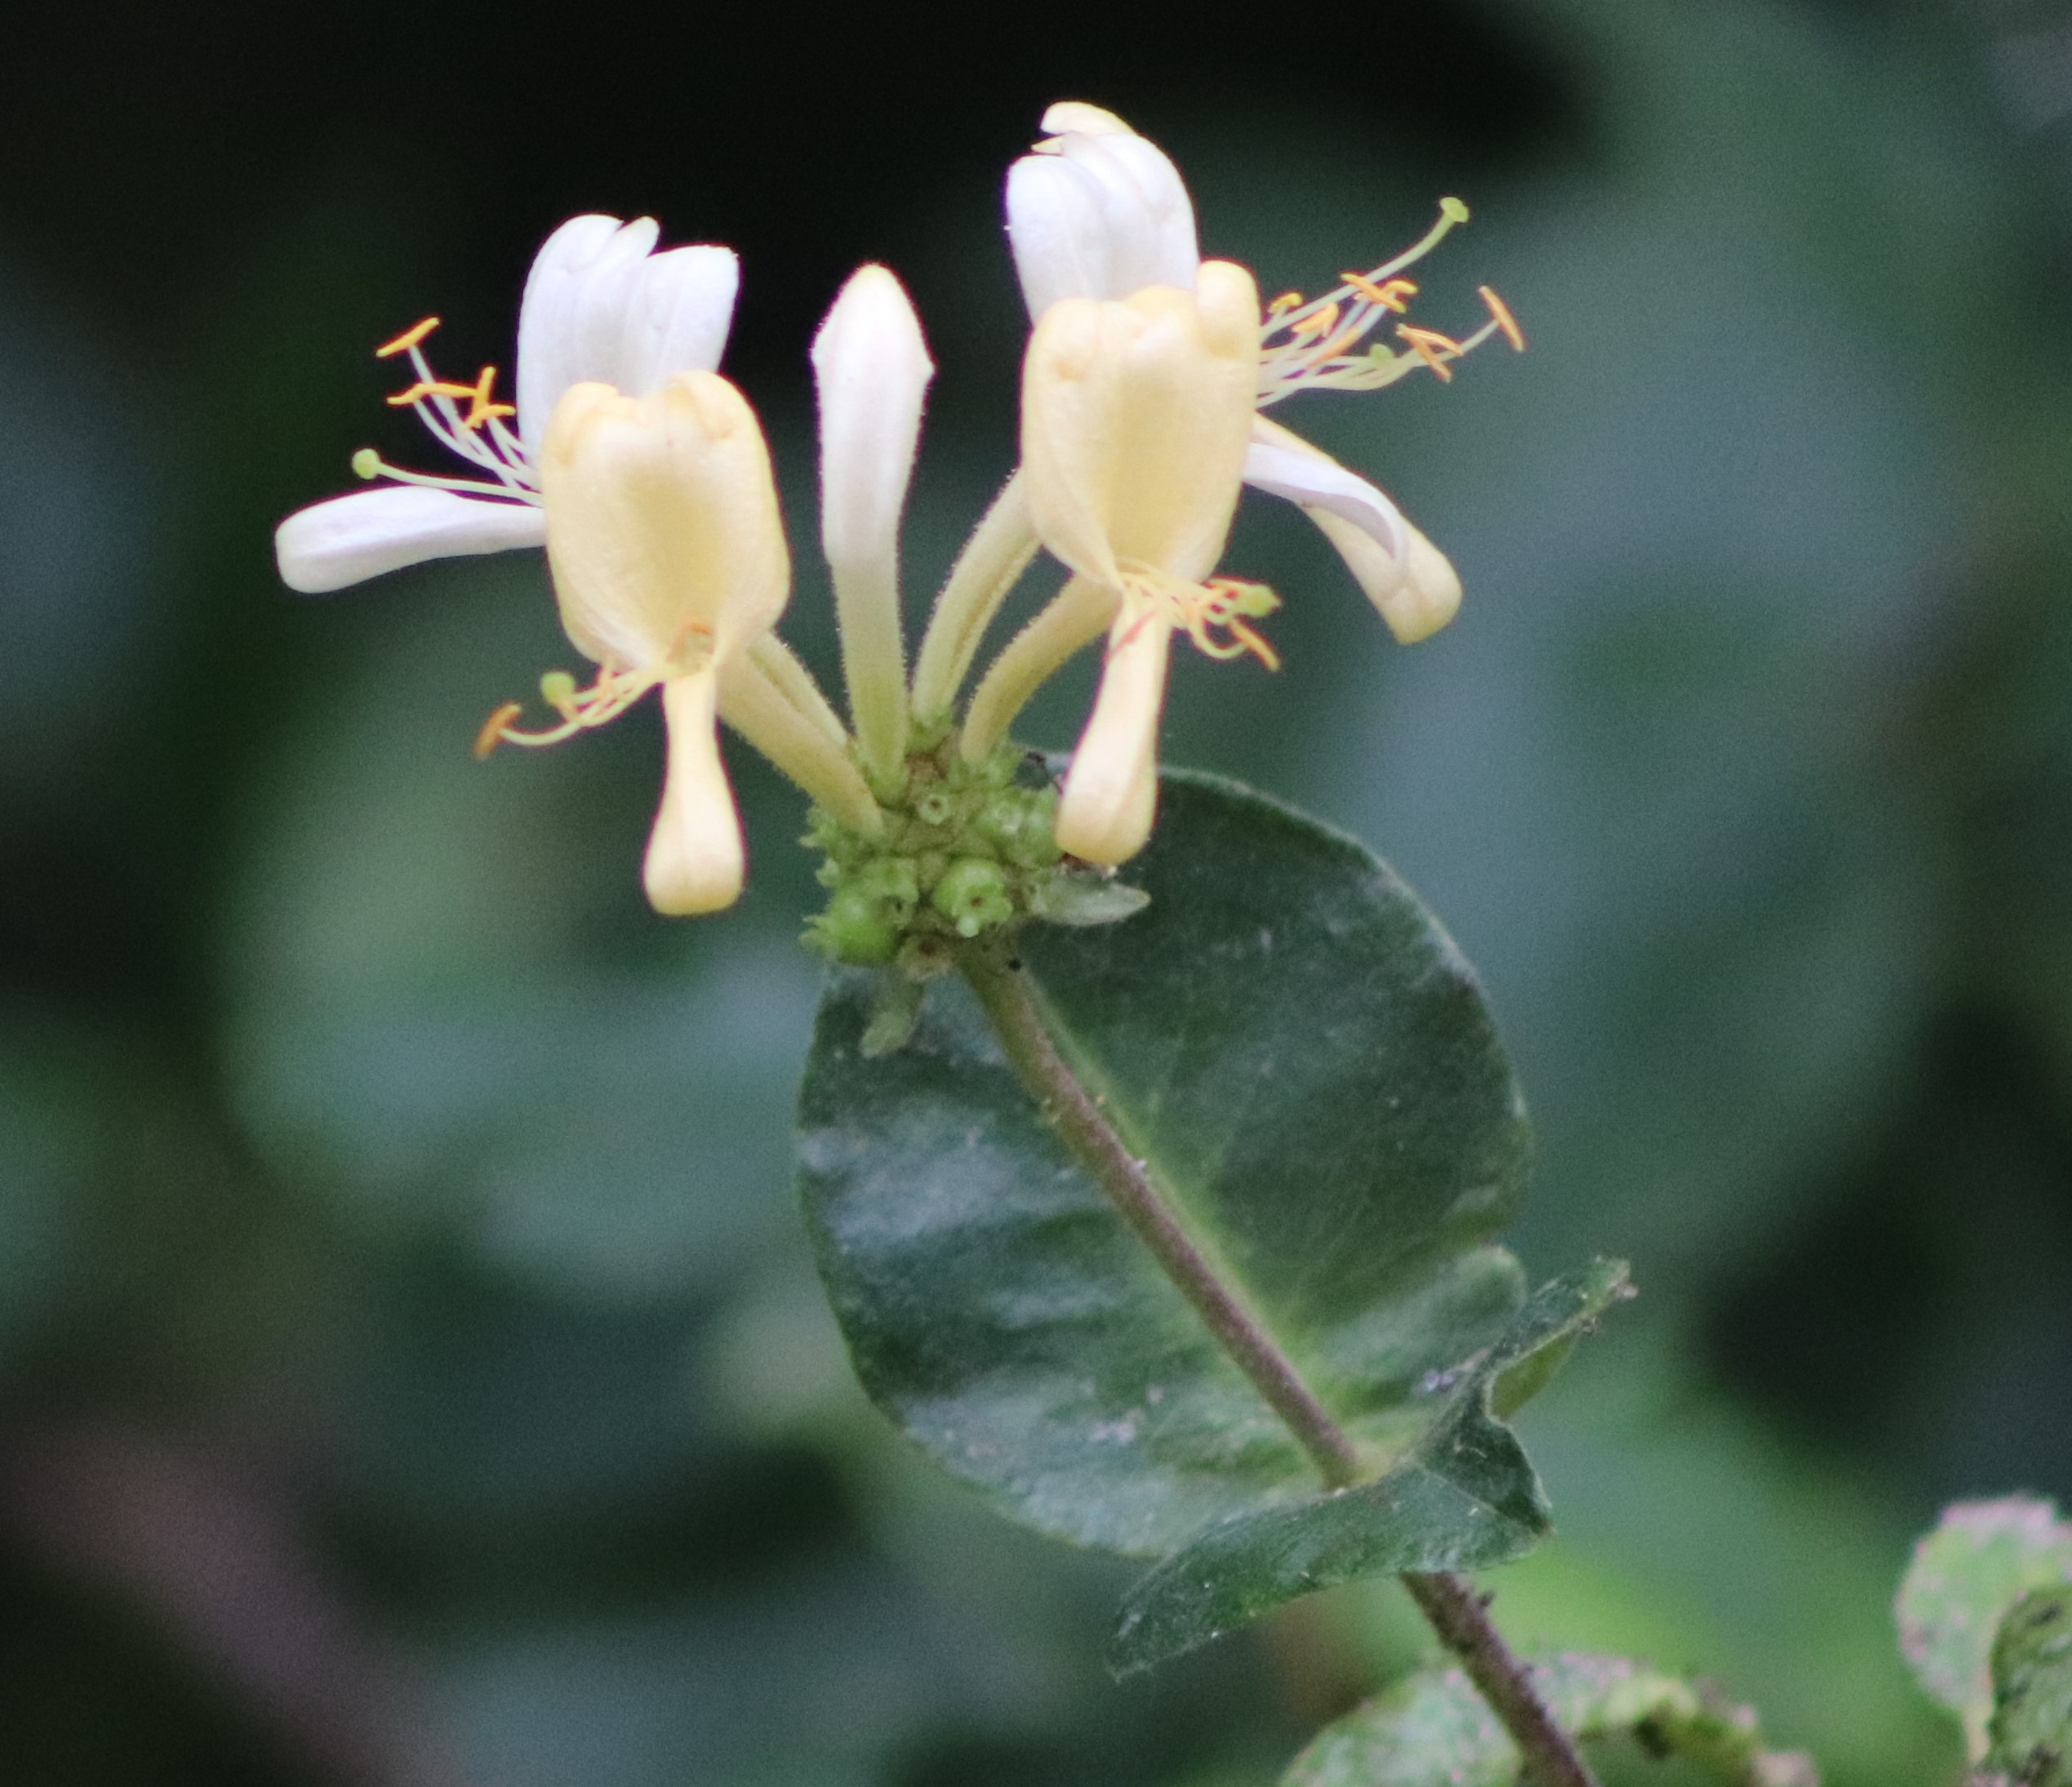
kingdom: Plantae
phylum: Tracheophyta
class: Magnoliopsida
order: Dipsacales
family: Caprifoliaceae
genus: Lonicera
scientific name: Lonicera periclymenum
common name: Almindelig gedeblad
